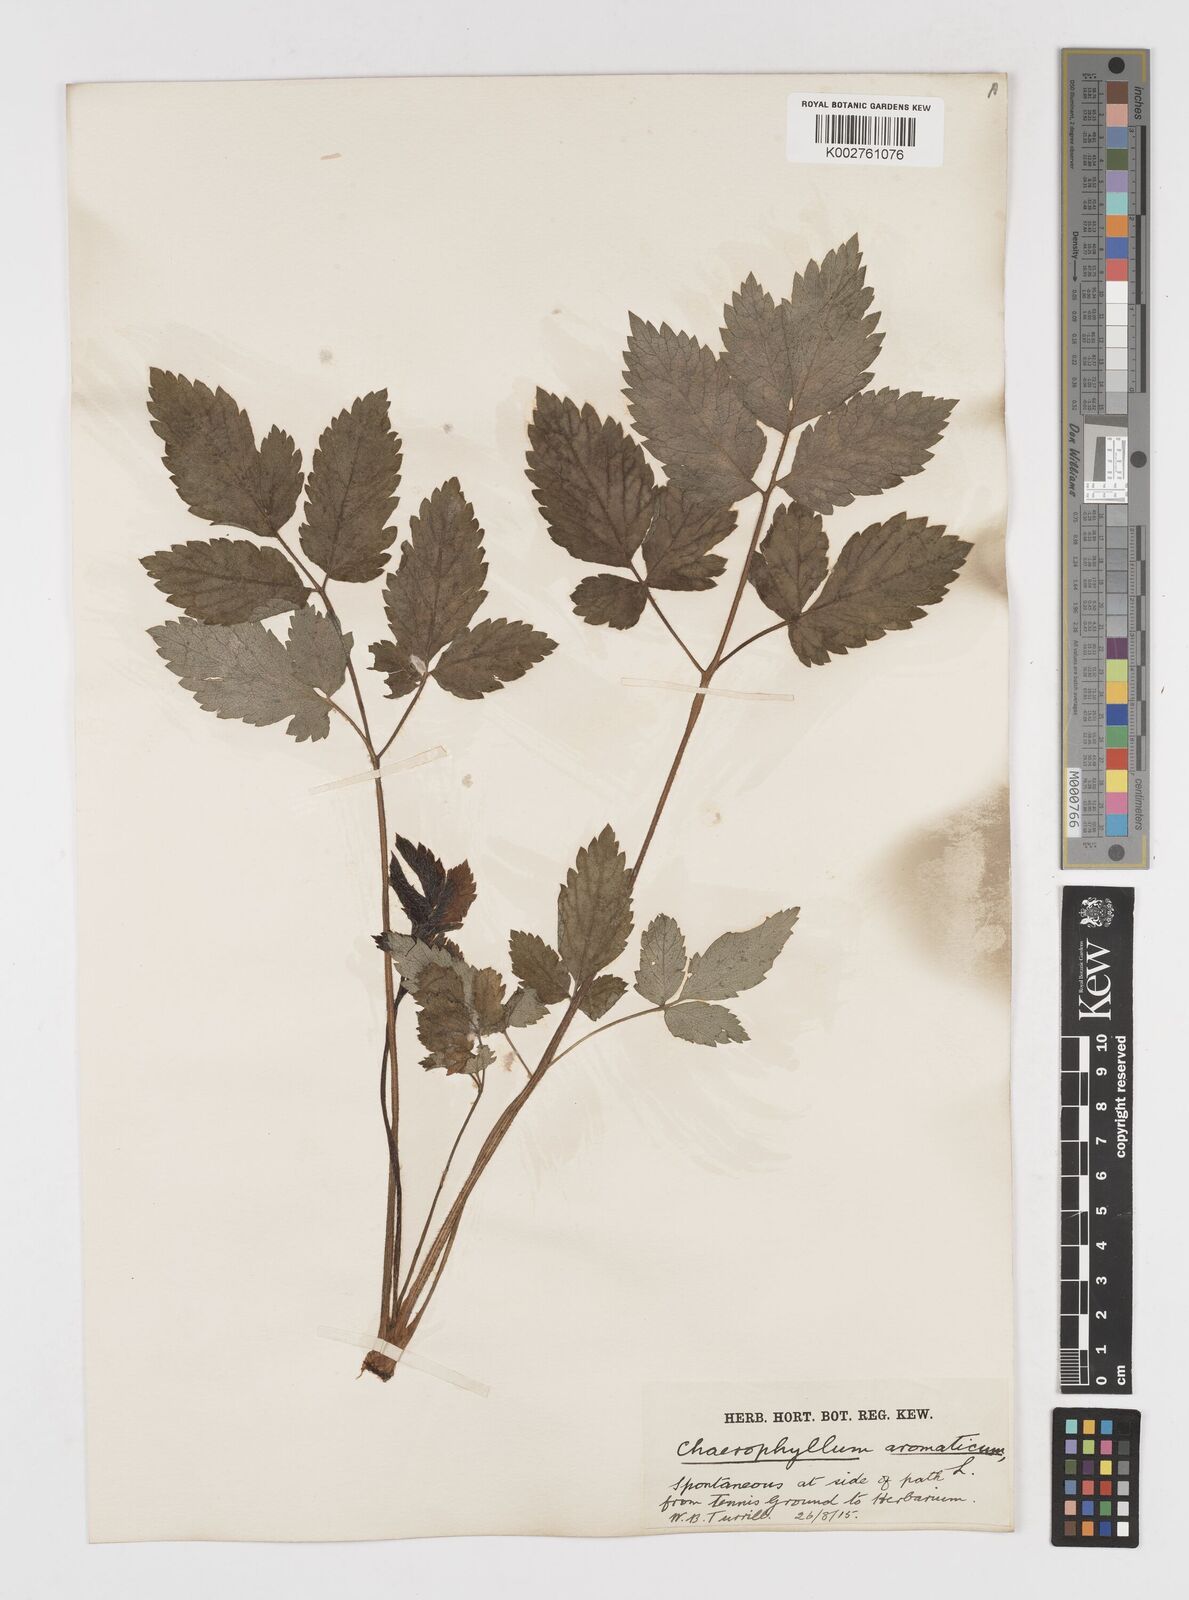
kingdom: Plantae
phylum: Tracheophyta
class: Magnoliopsida
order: Apiales
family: Apiaceae
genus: Chaerophyllum
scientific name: Chaerophyllum aromaticum
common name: Broadleaf chervil
